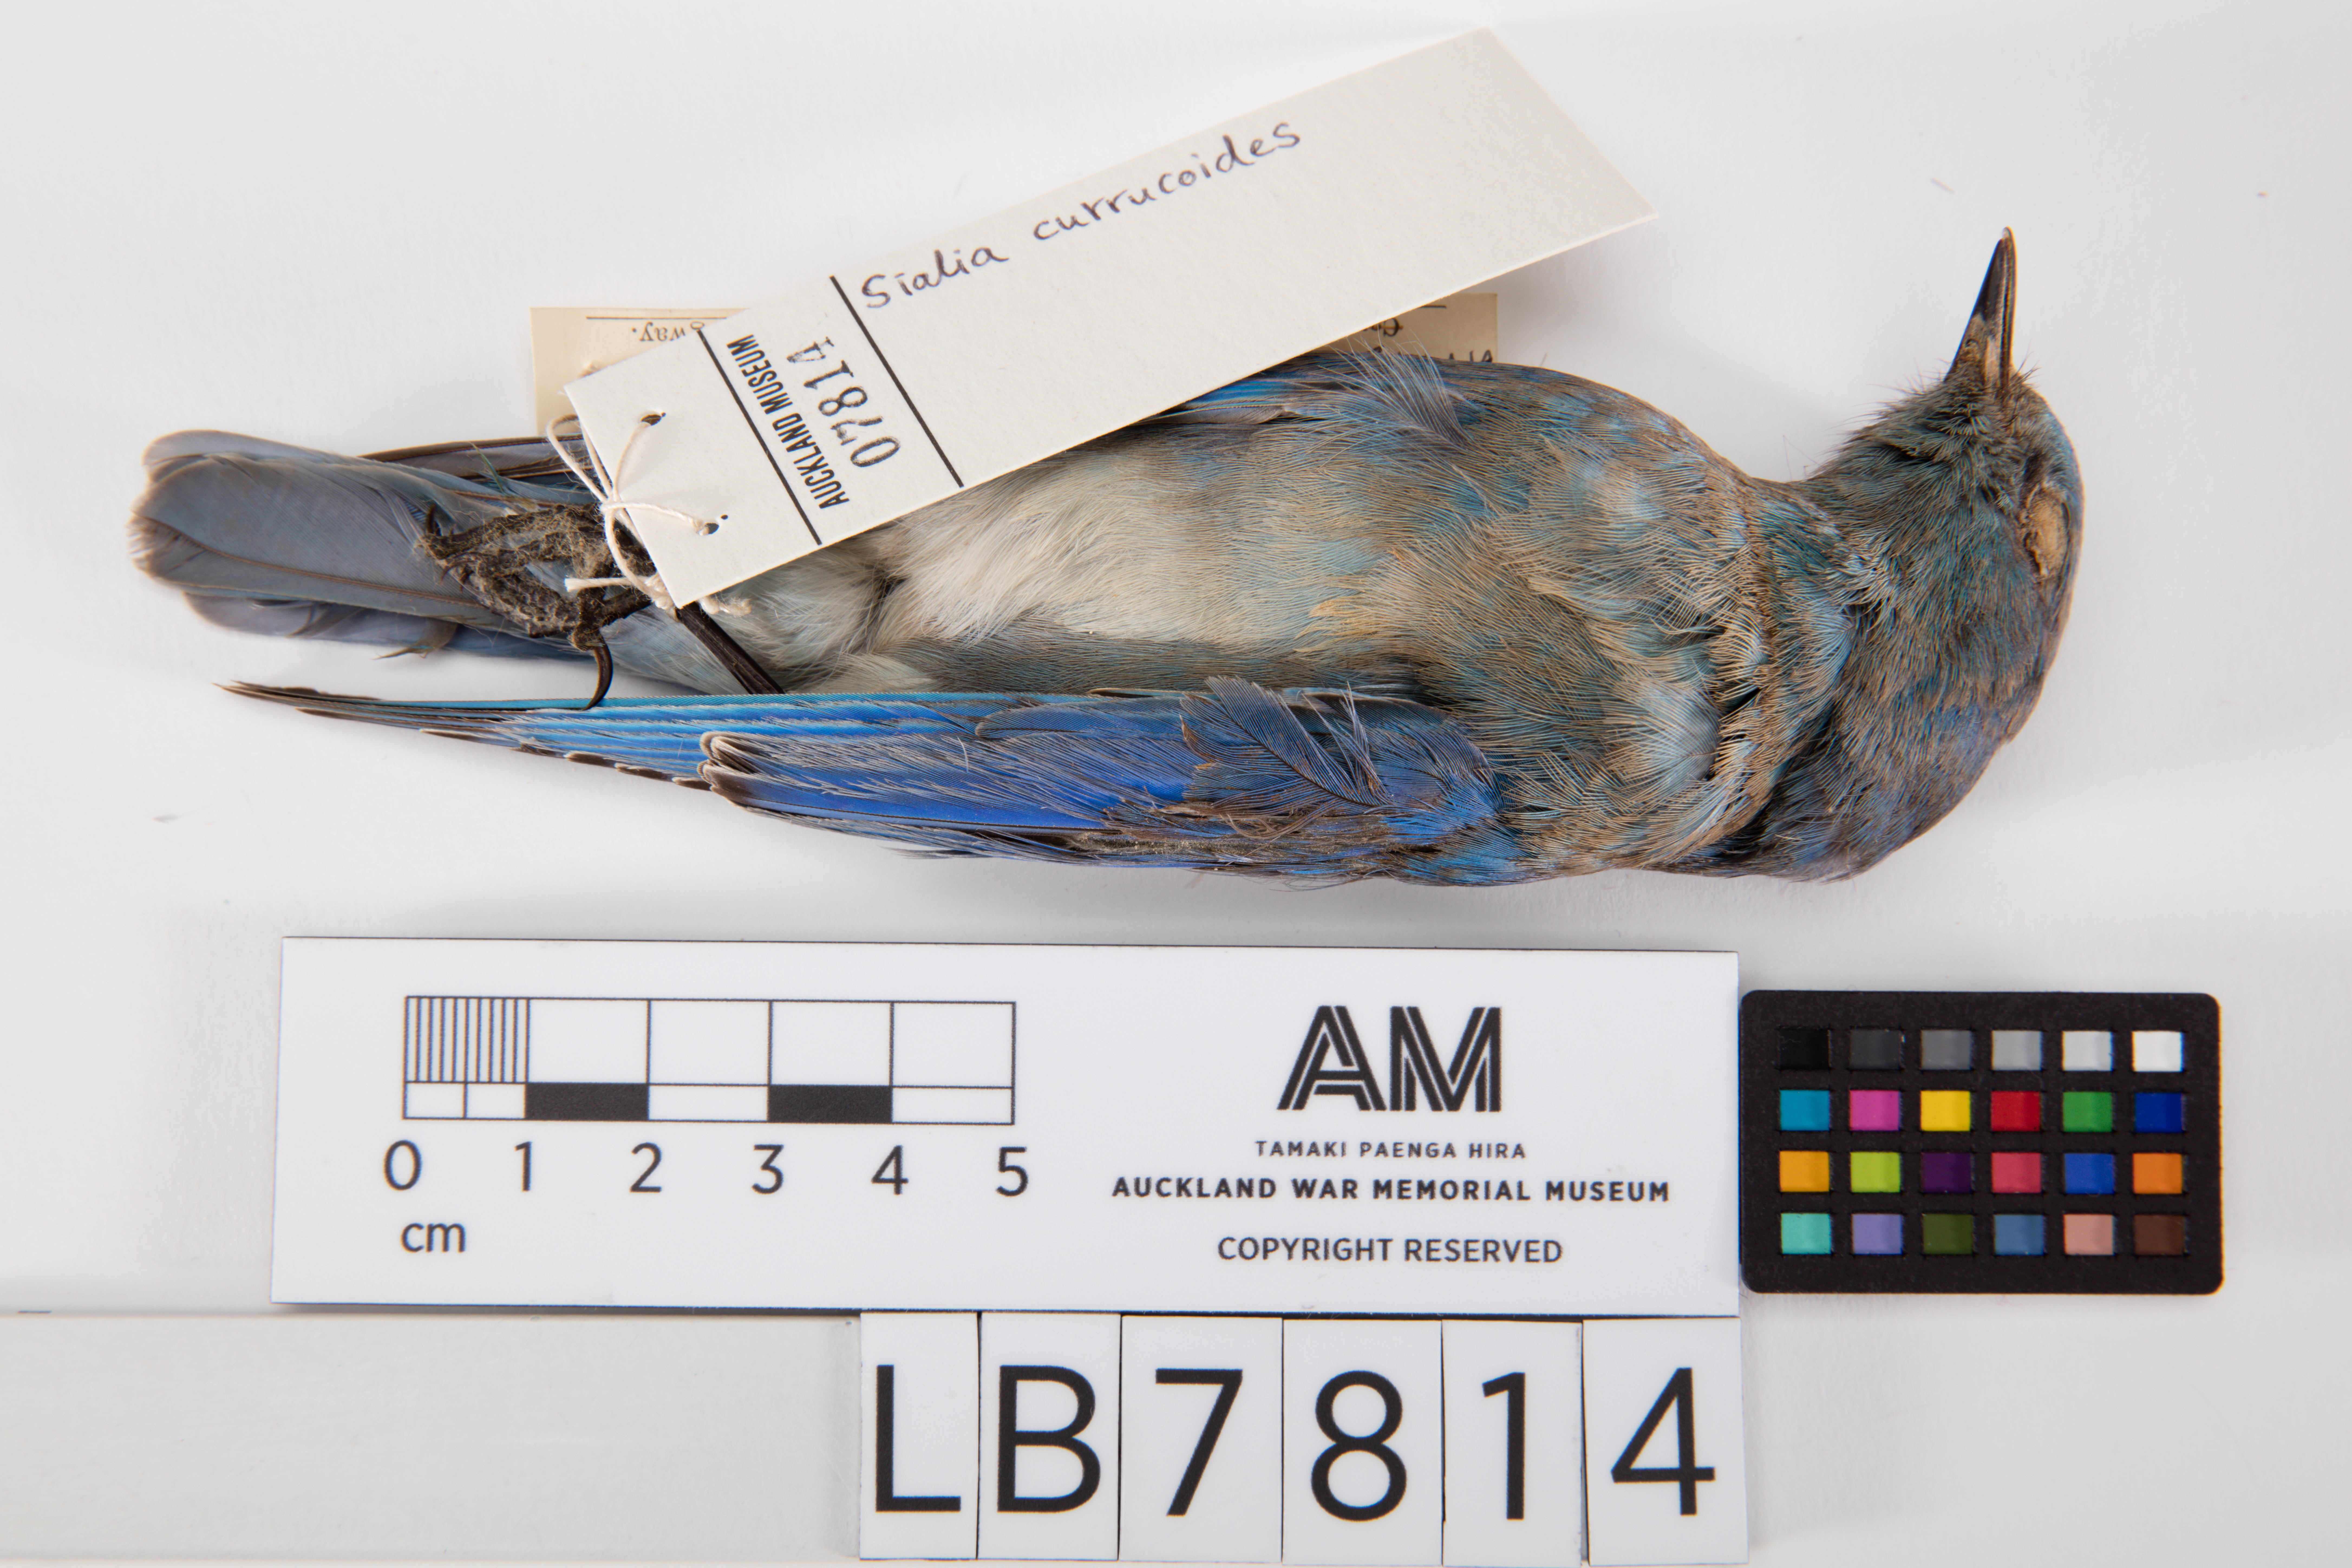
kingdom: Animalia
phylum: Chordata
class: Aves
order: Passeriformes
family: Turdidae
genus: Sialia
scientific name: Sialia currucoides
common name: Mountain bluebird
